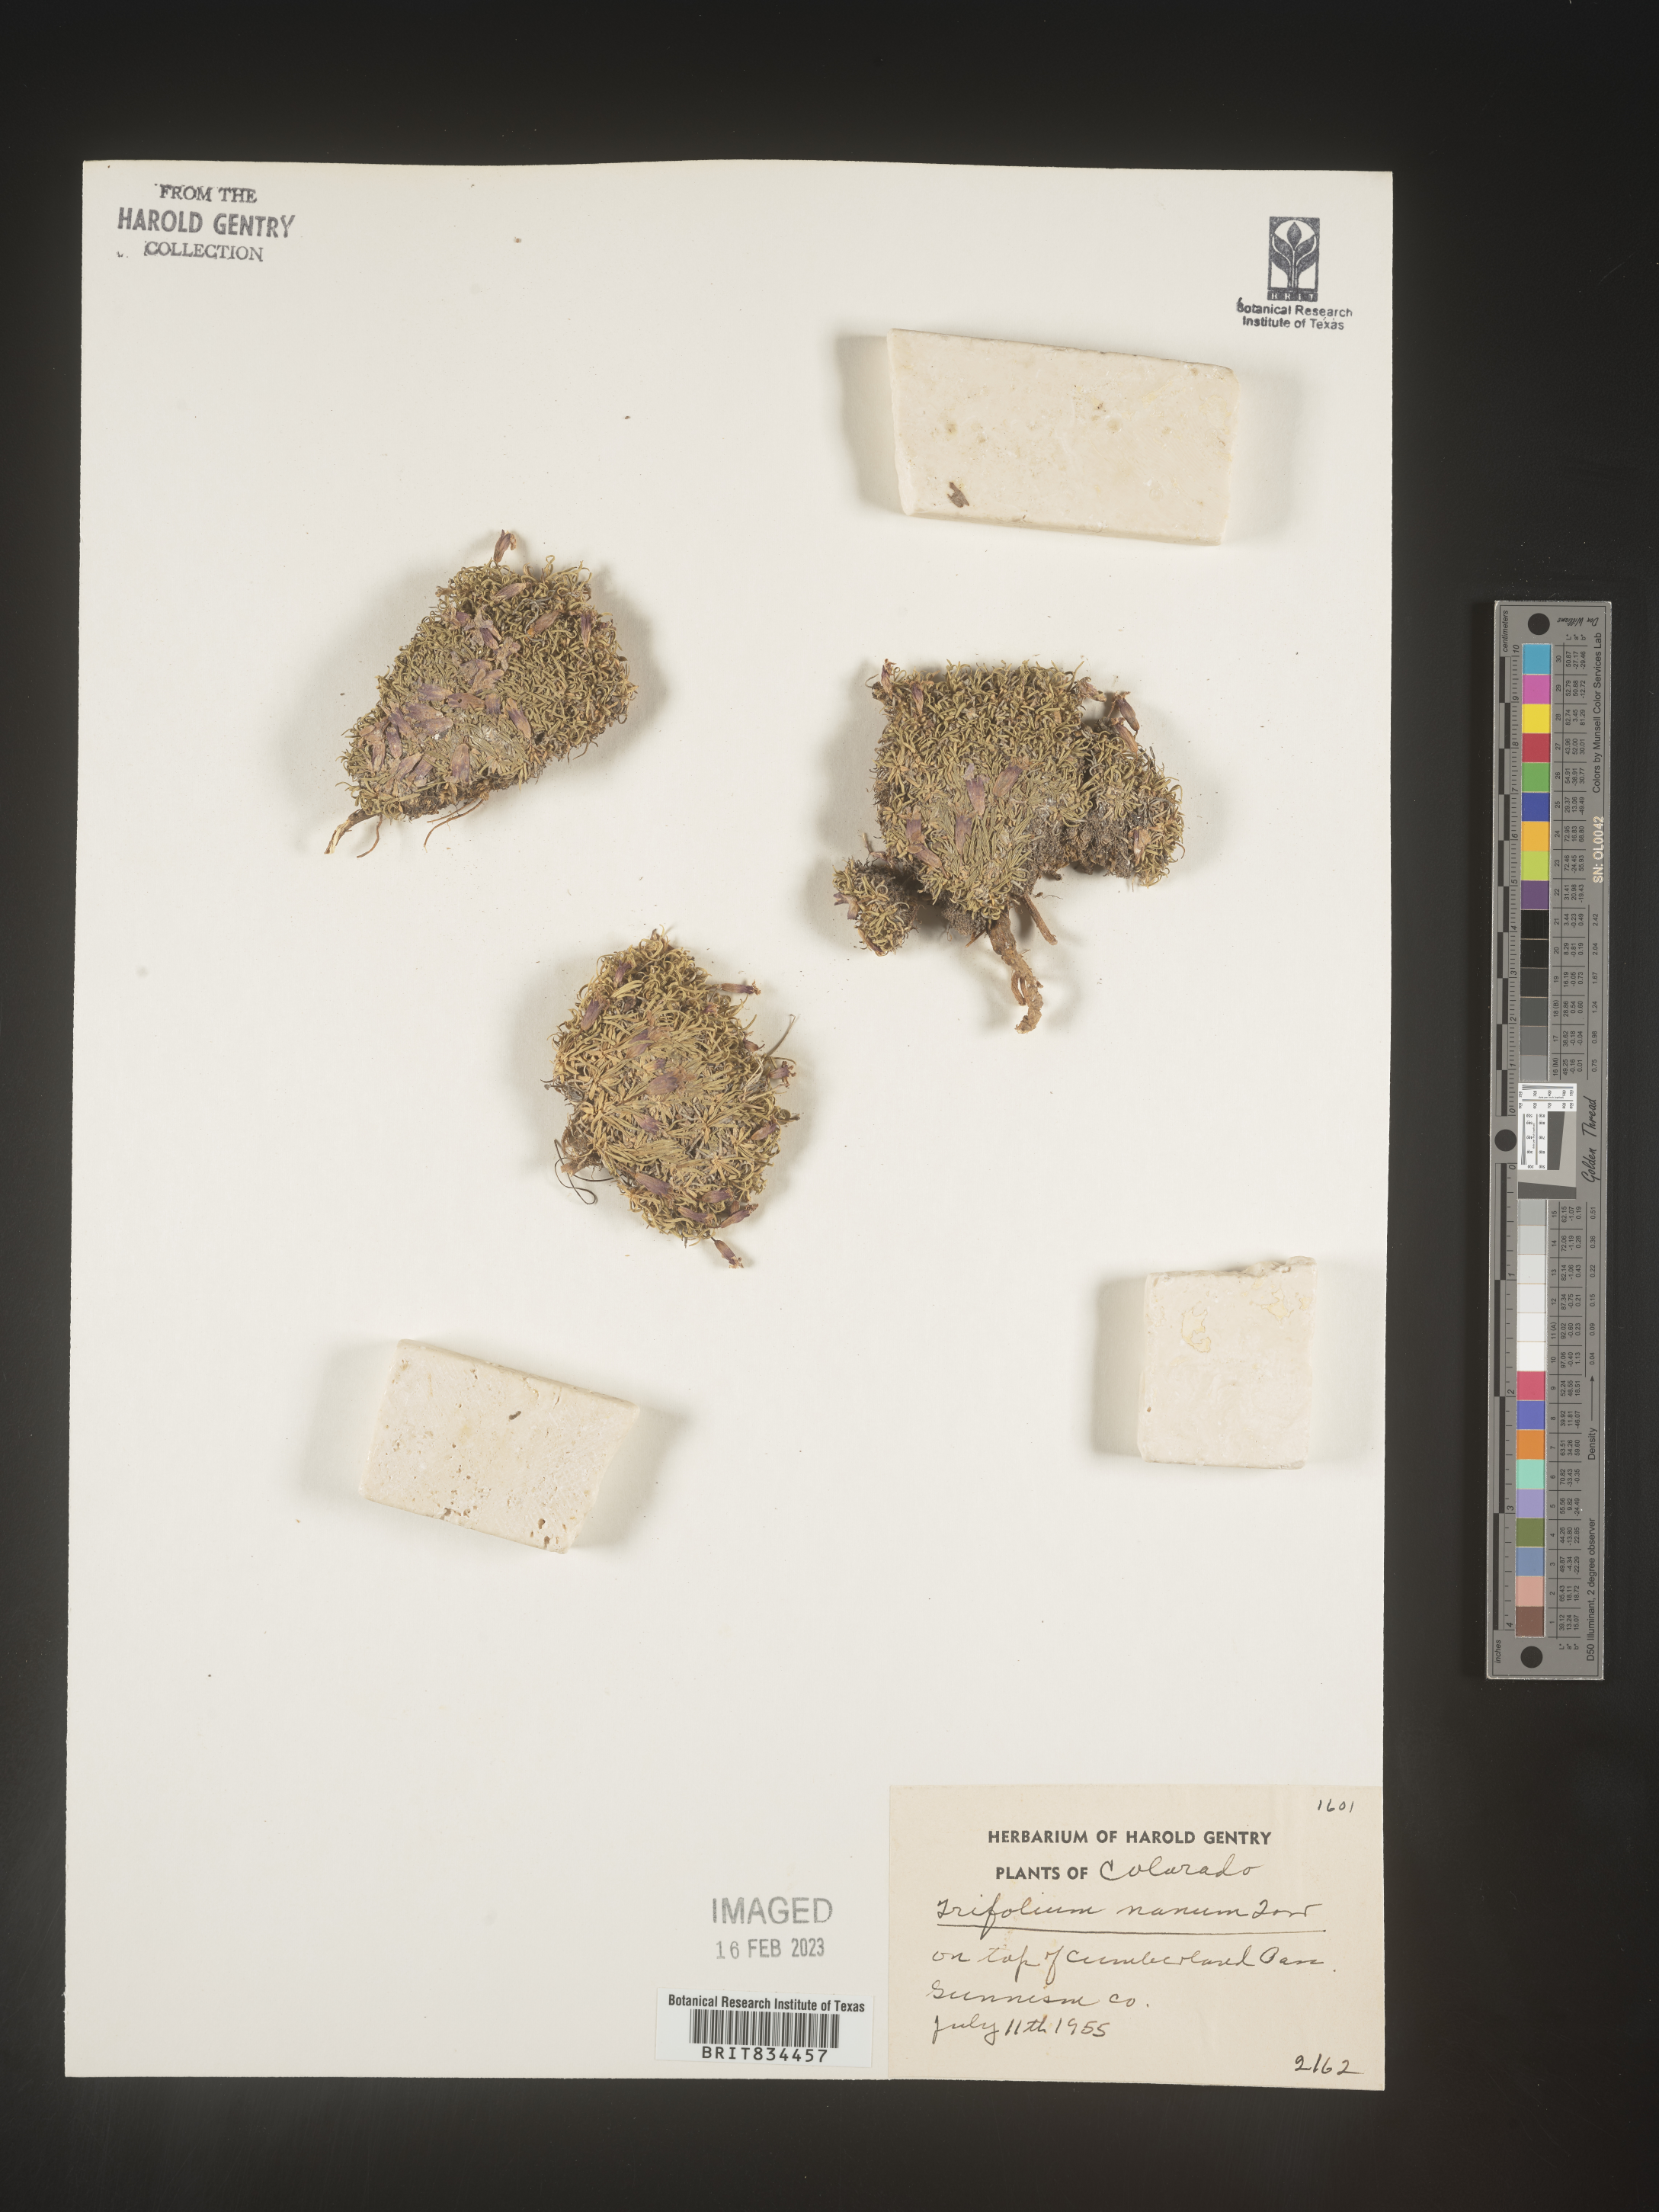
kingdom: Plantae
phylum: Tracheophyta
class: Magnoliopsida
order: Fabales
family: Fabaceae
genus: Trifolium
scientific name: Trifolium
